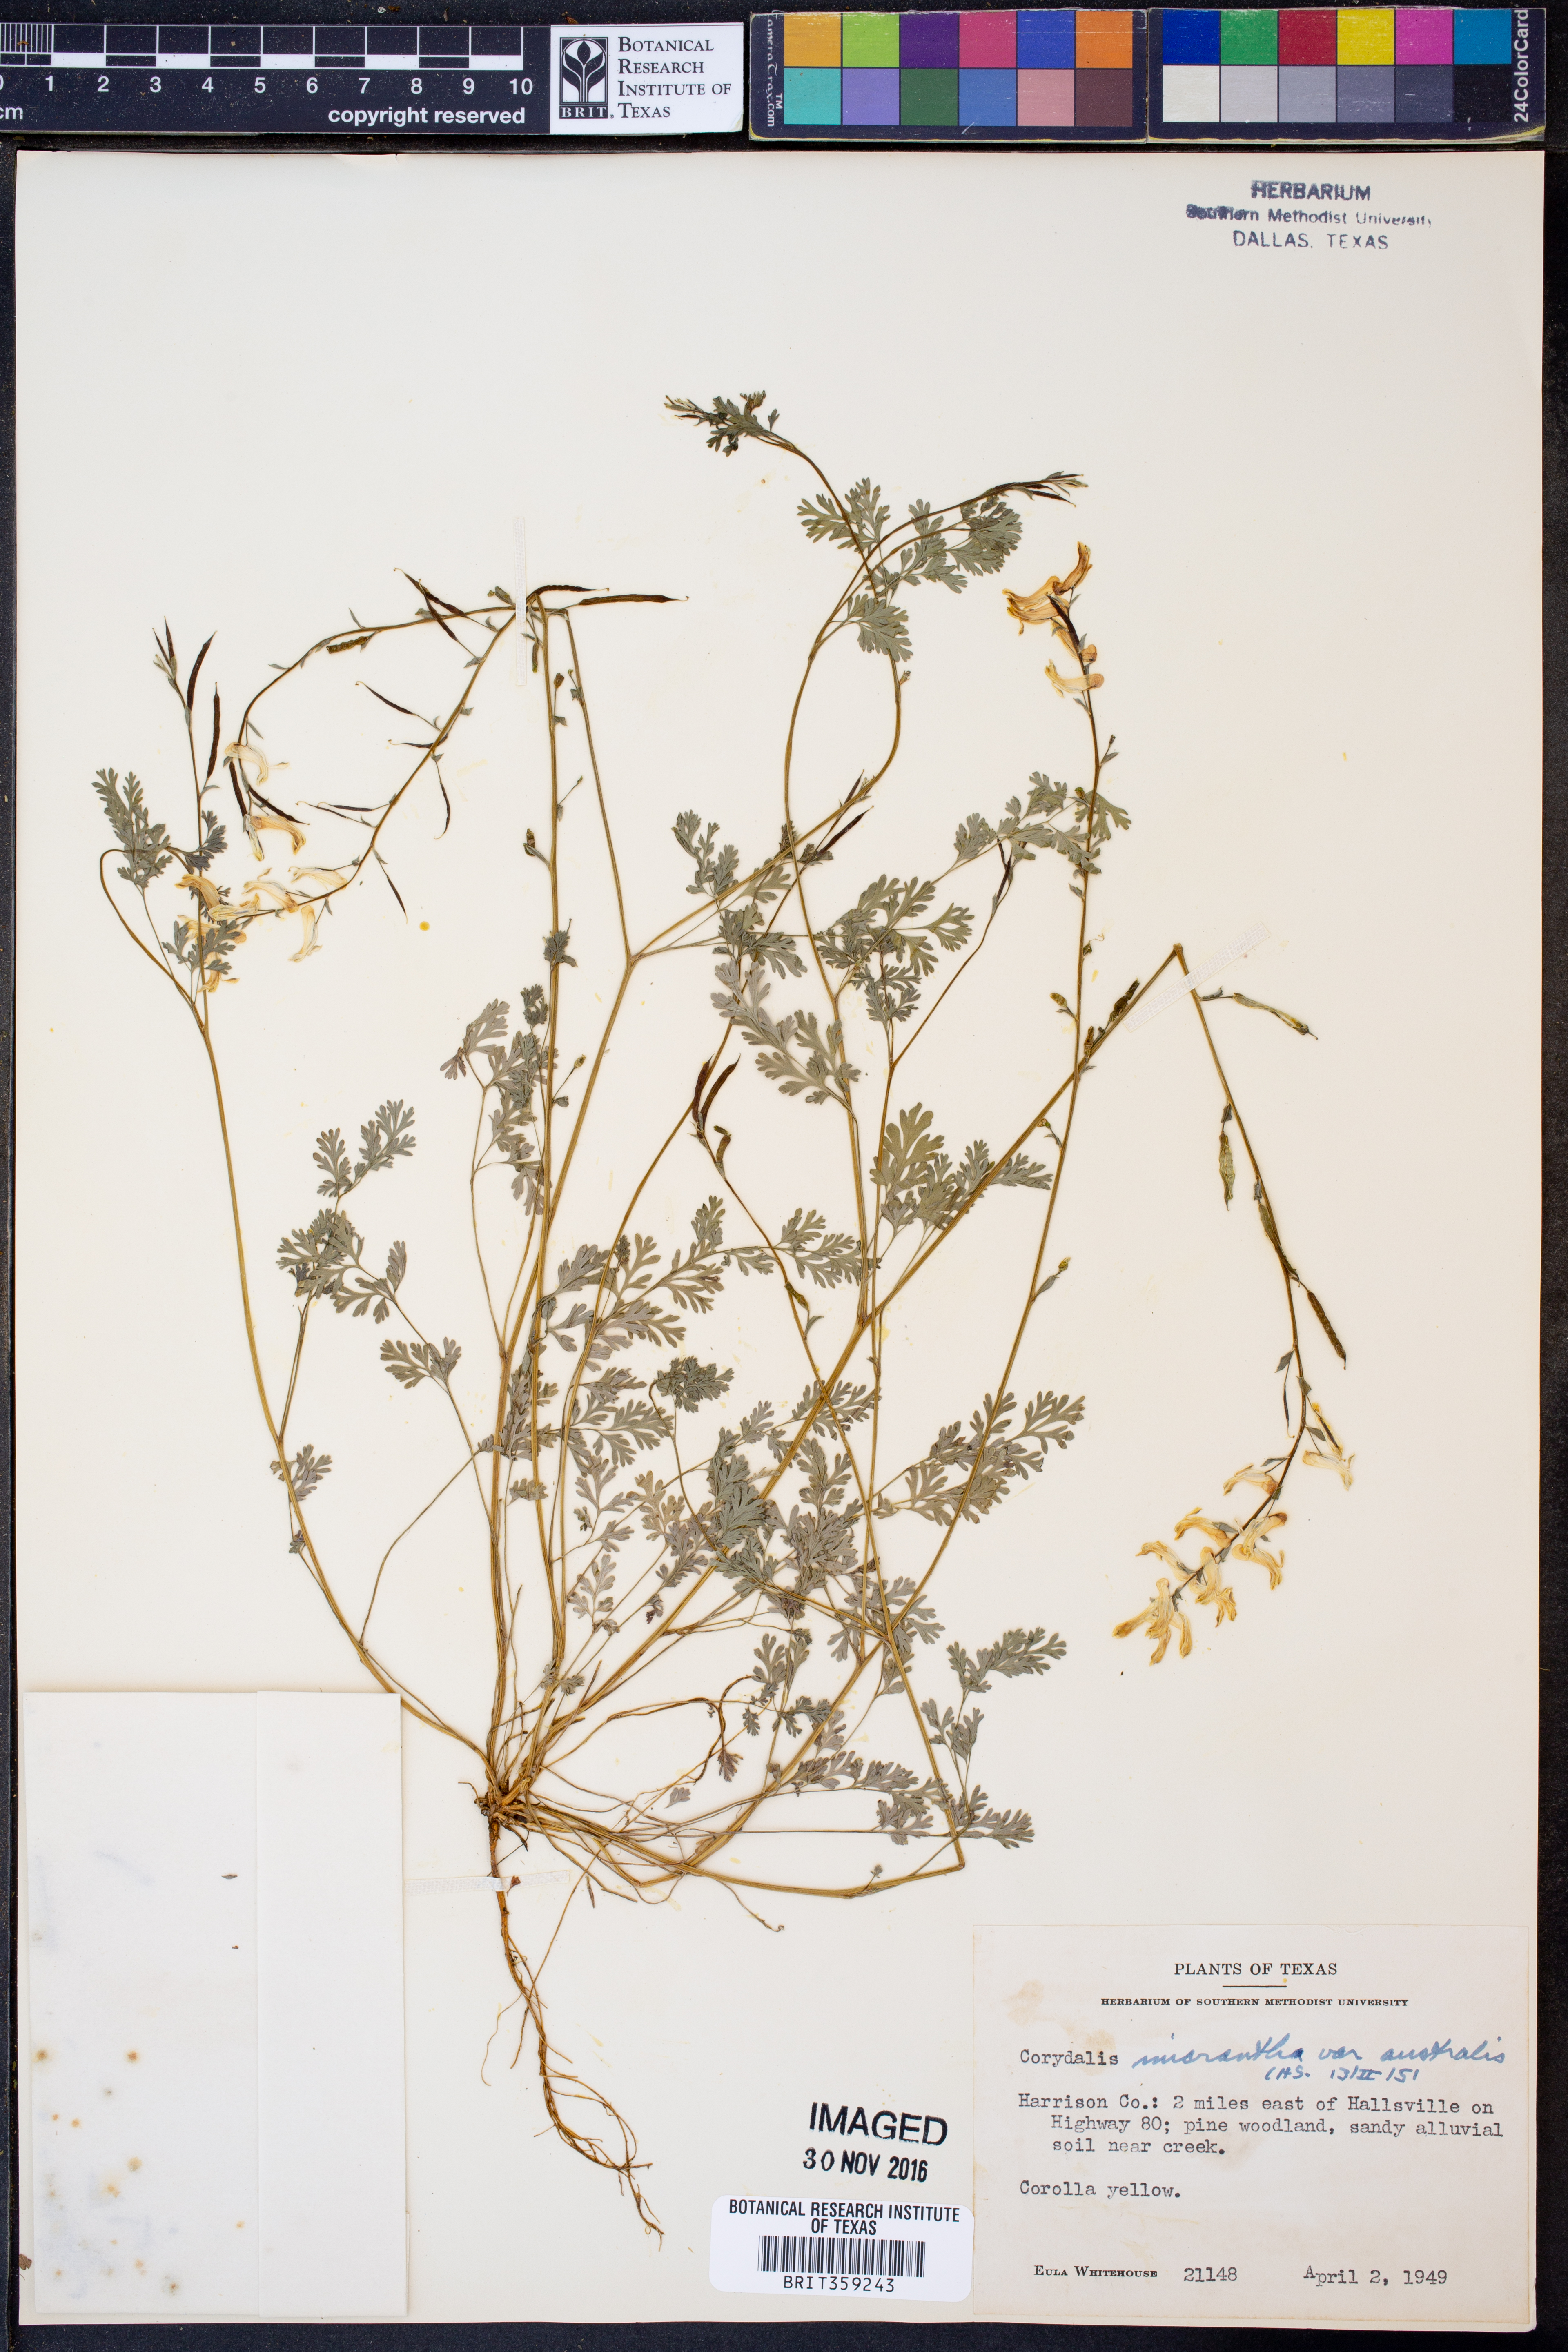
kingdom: Plantae
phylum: Tracheophyta
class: Magnoliopsida
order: Ranunculales
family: Papaveraceae
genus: Corydalis
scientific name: Corydalis micrantha
